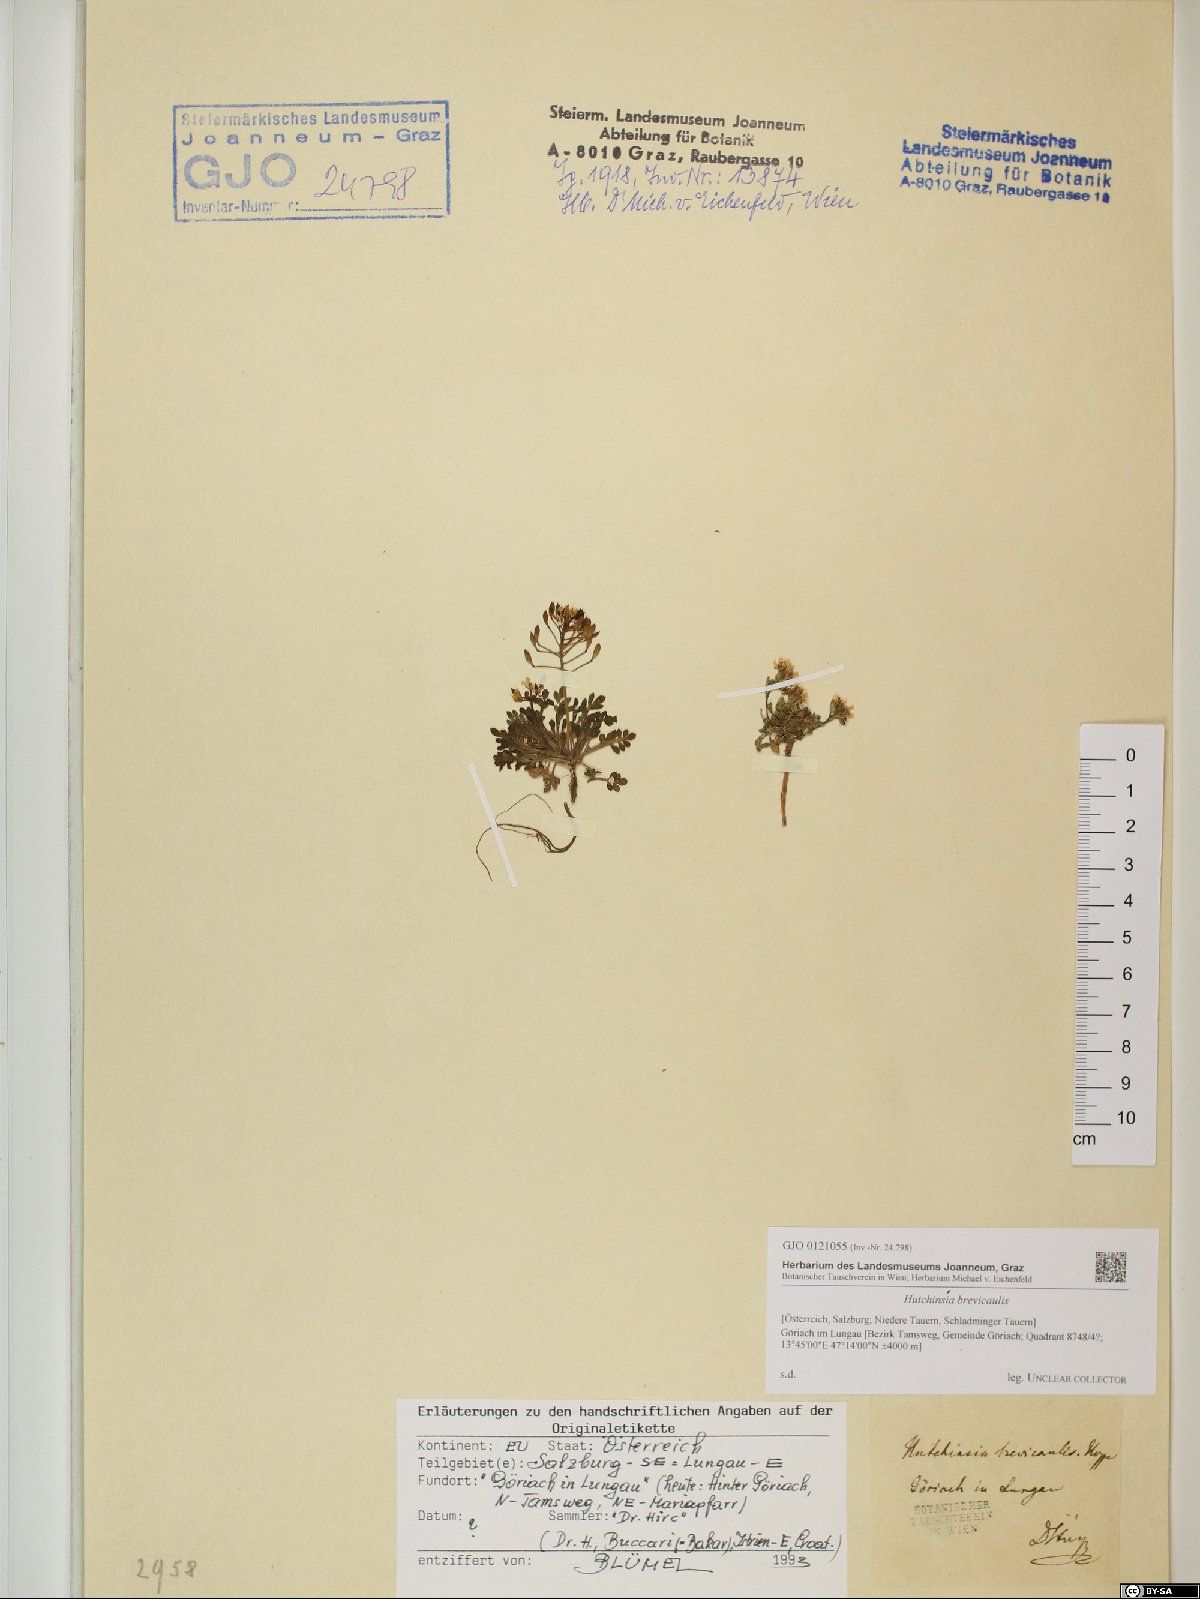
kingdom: Plantae
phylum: Tracheophyta
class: Magnoliopsida
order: Brassicales
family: Brassicaceae
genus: Hornungia
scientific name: Hornungia alpina
